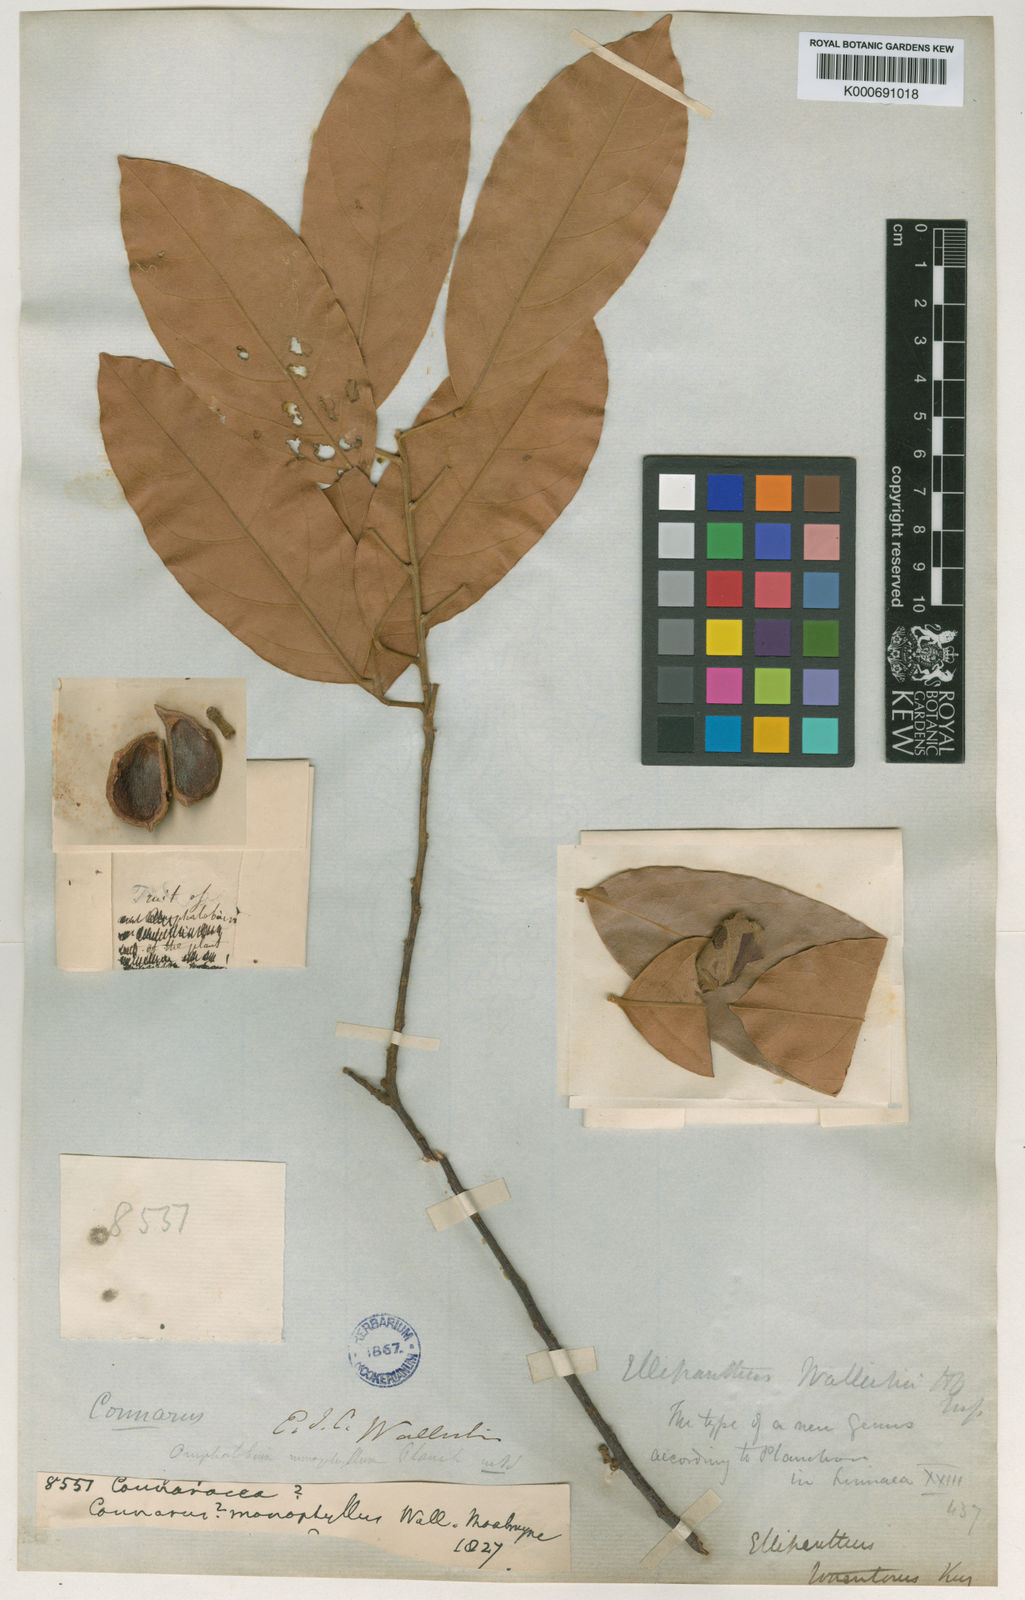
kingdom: Plantae
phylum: Tracheophyta
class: Magnoliopsida
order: Oxalidales
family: Connaraceae
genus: Ellipanthus
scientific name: Ellipanthus tomentosus
